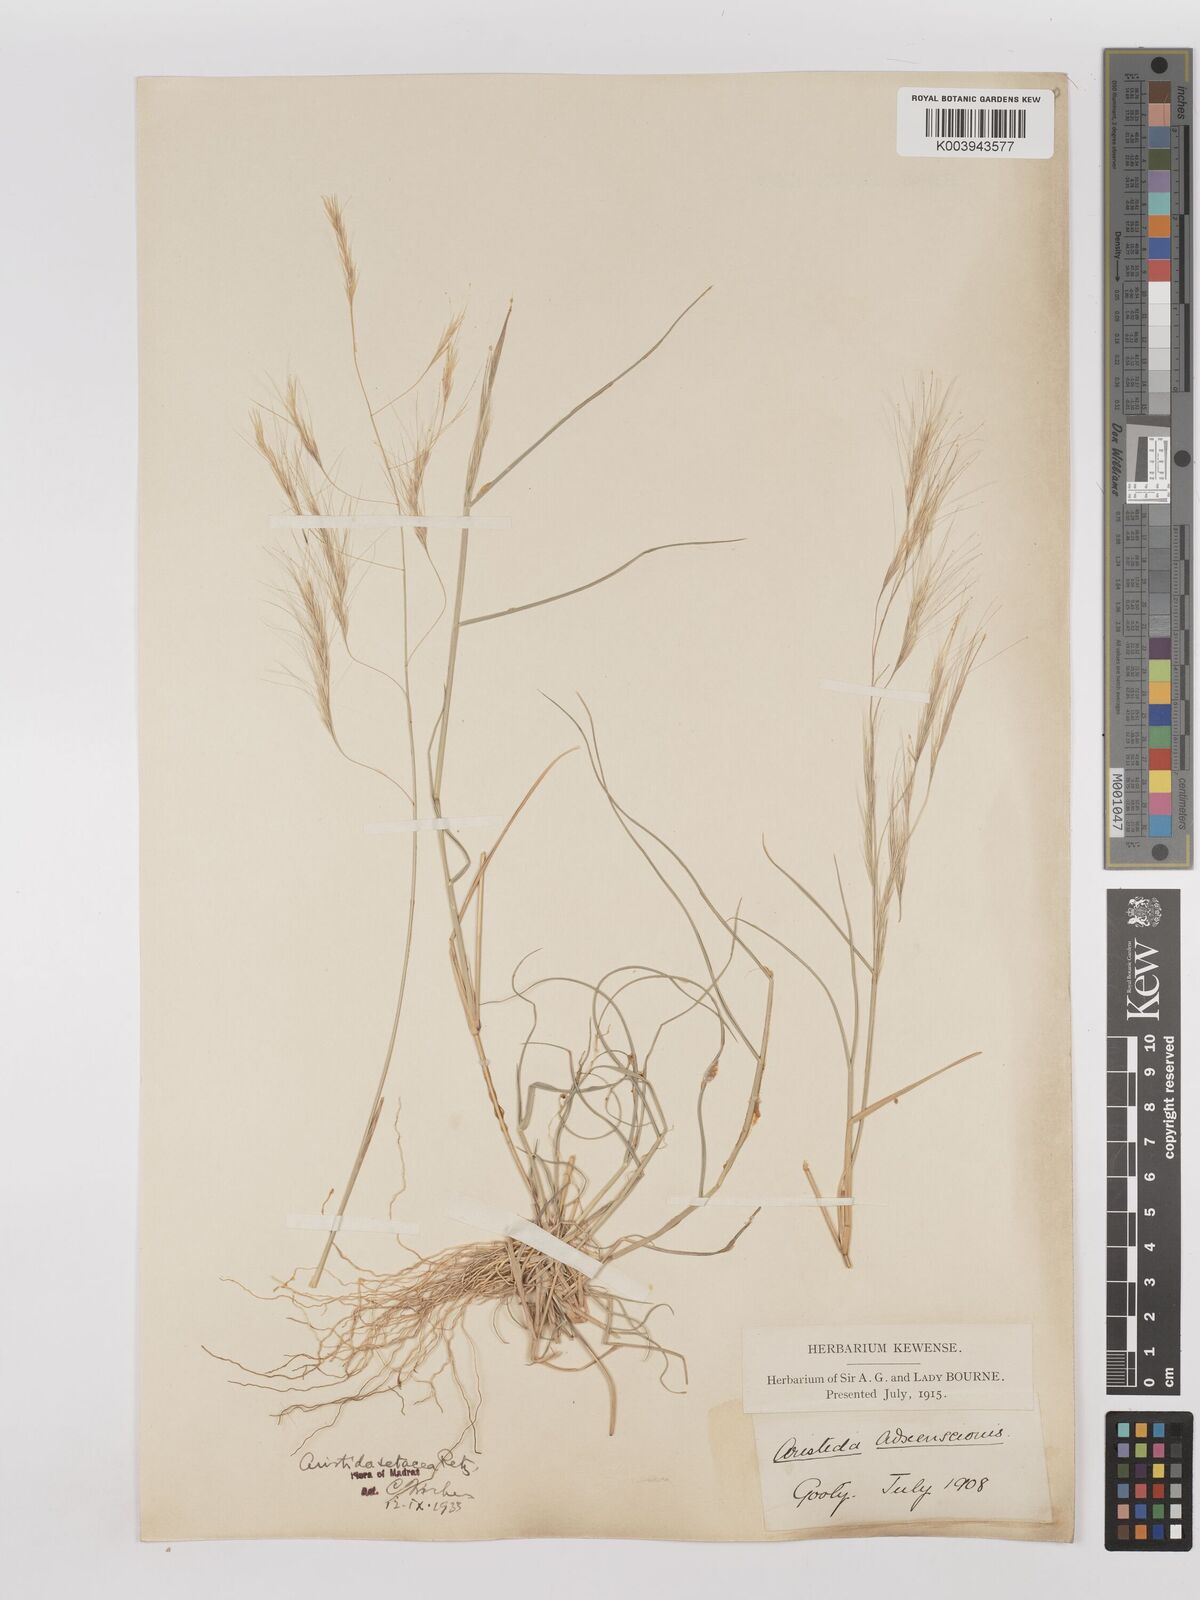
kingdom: Plantae
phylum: Tracheophyta
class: Liliopsida
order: Poales
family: Poaceae
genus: Aristida
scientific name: Aristida setacea
